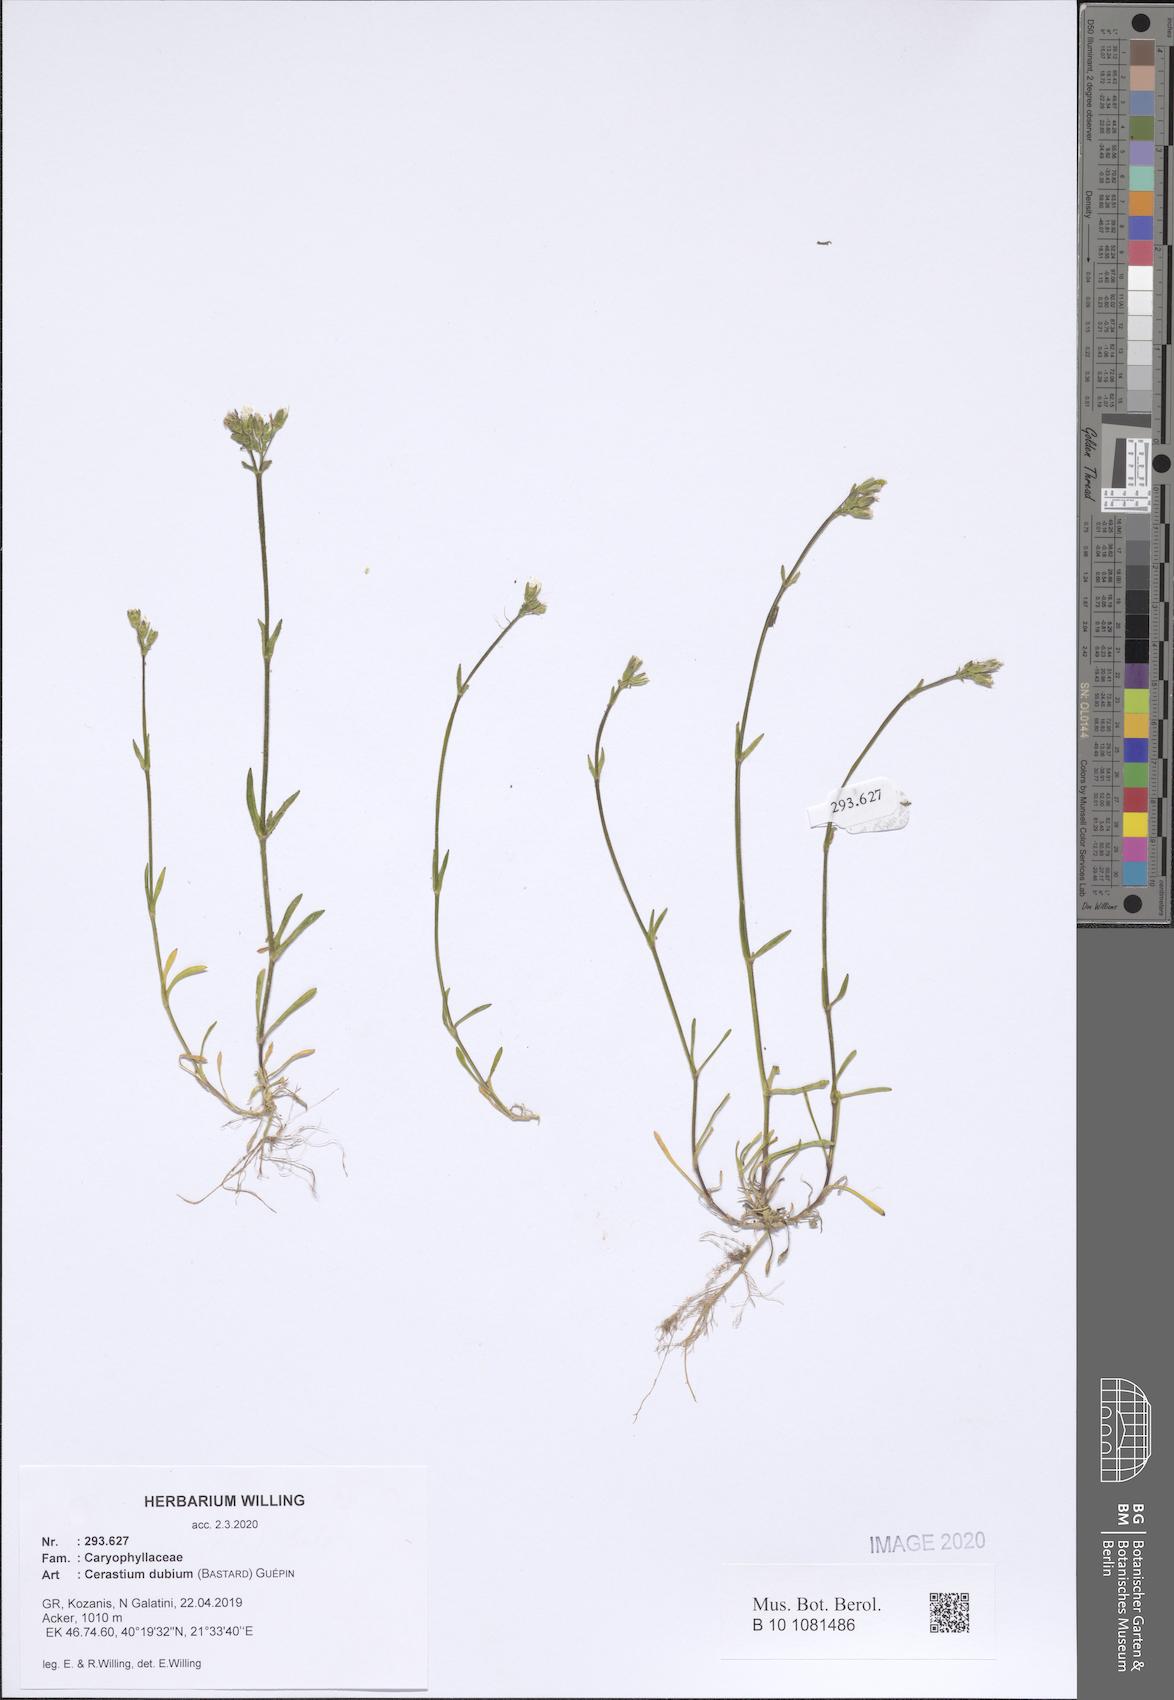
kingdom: Plantae
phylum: Tracheophyta
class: Magnoliopsida
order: Caryophyllales
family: Caryophyllaceae
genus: Dichodon
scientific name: Dichodon viscidum
